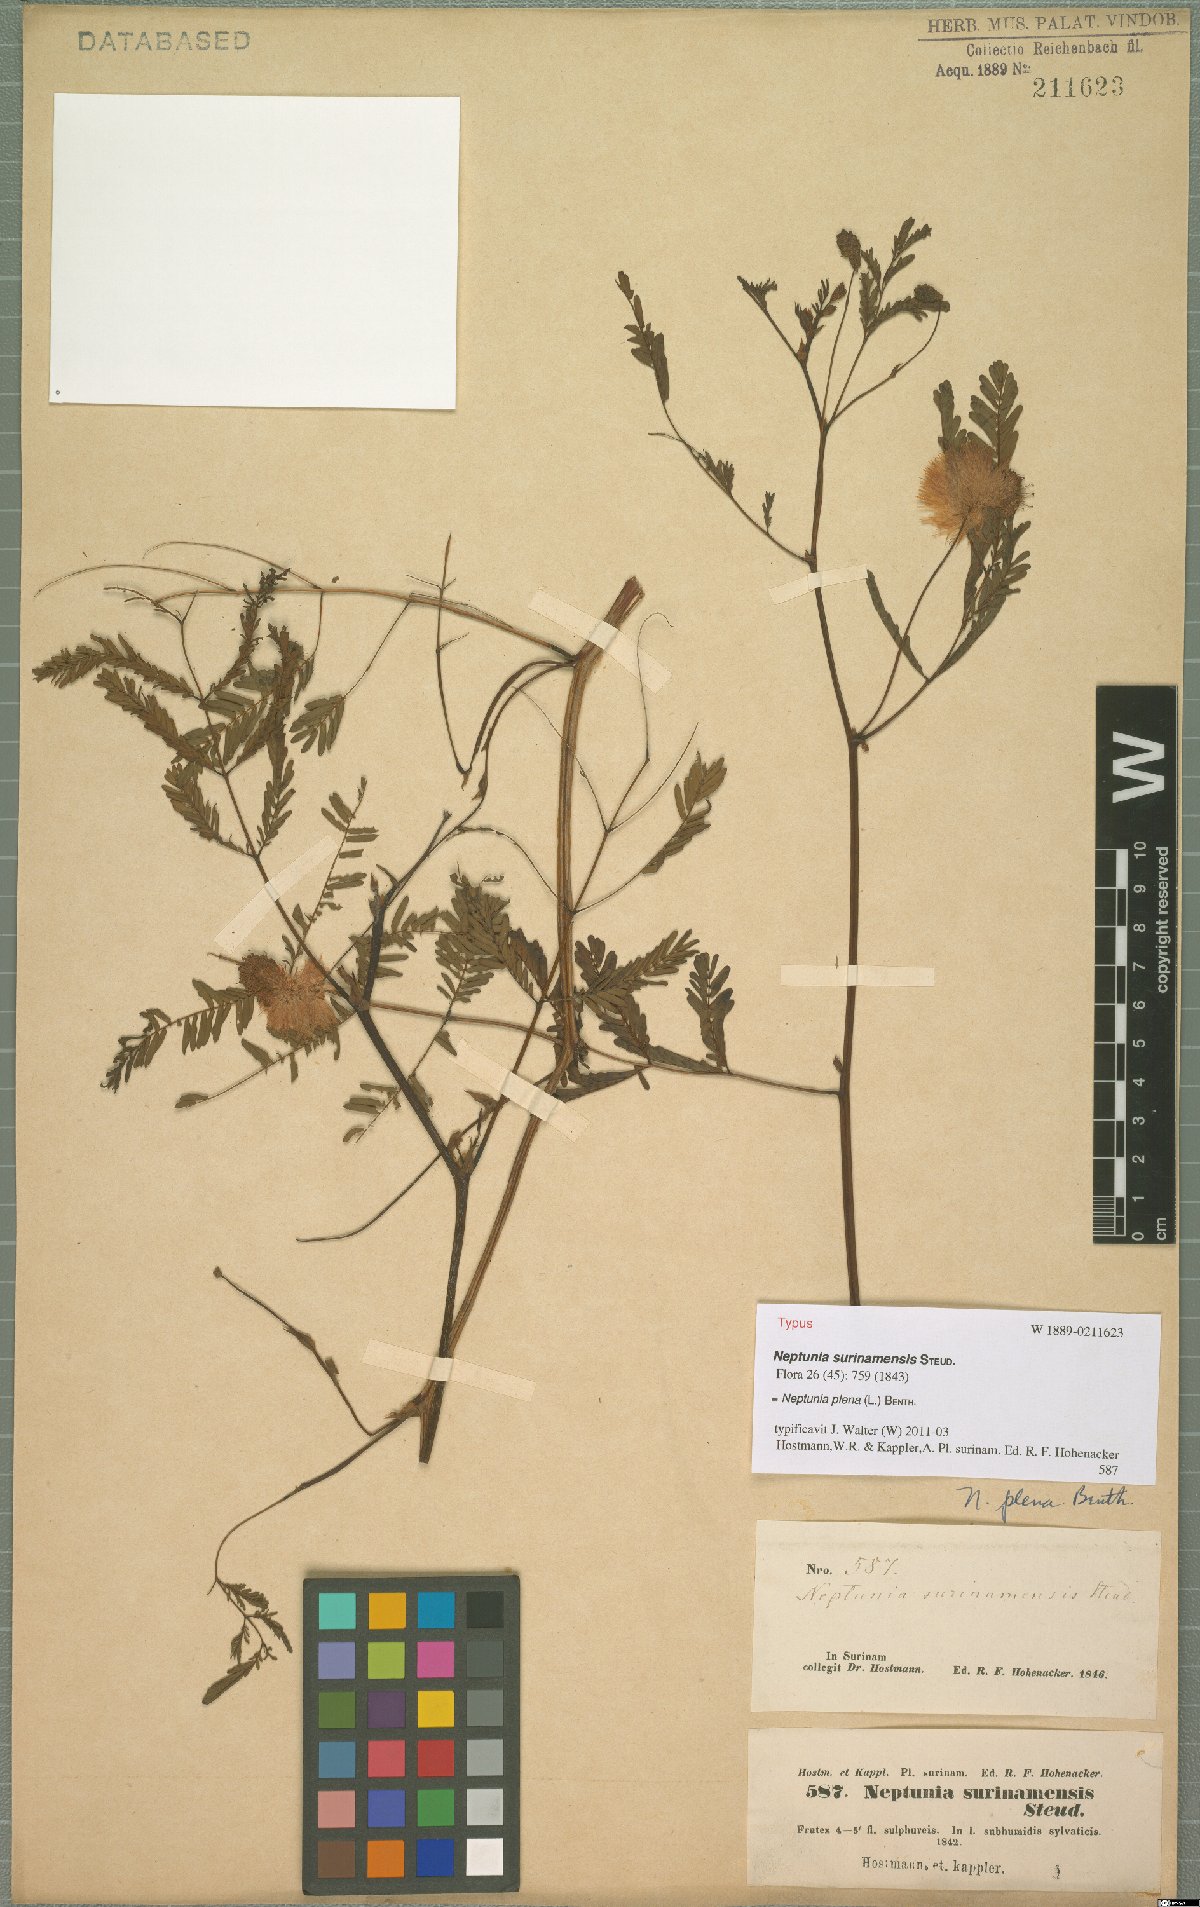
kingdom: Plantae
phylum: Tracheophyta
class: Magnoliopsida
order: Fabales
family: Fabaceae
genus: Neptunia
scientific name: Neptunia plena
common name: Dead and awake
